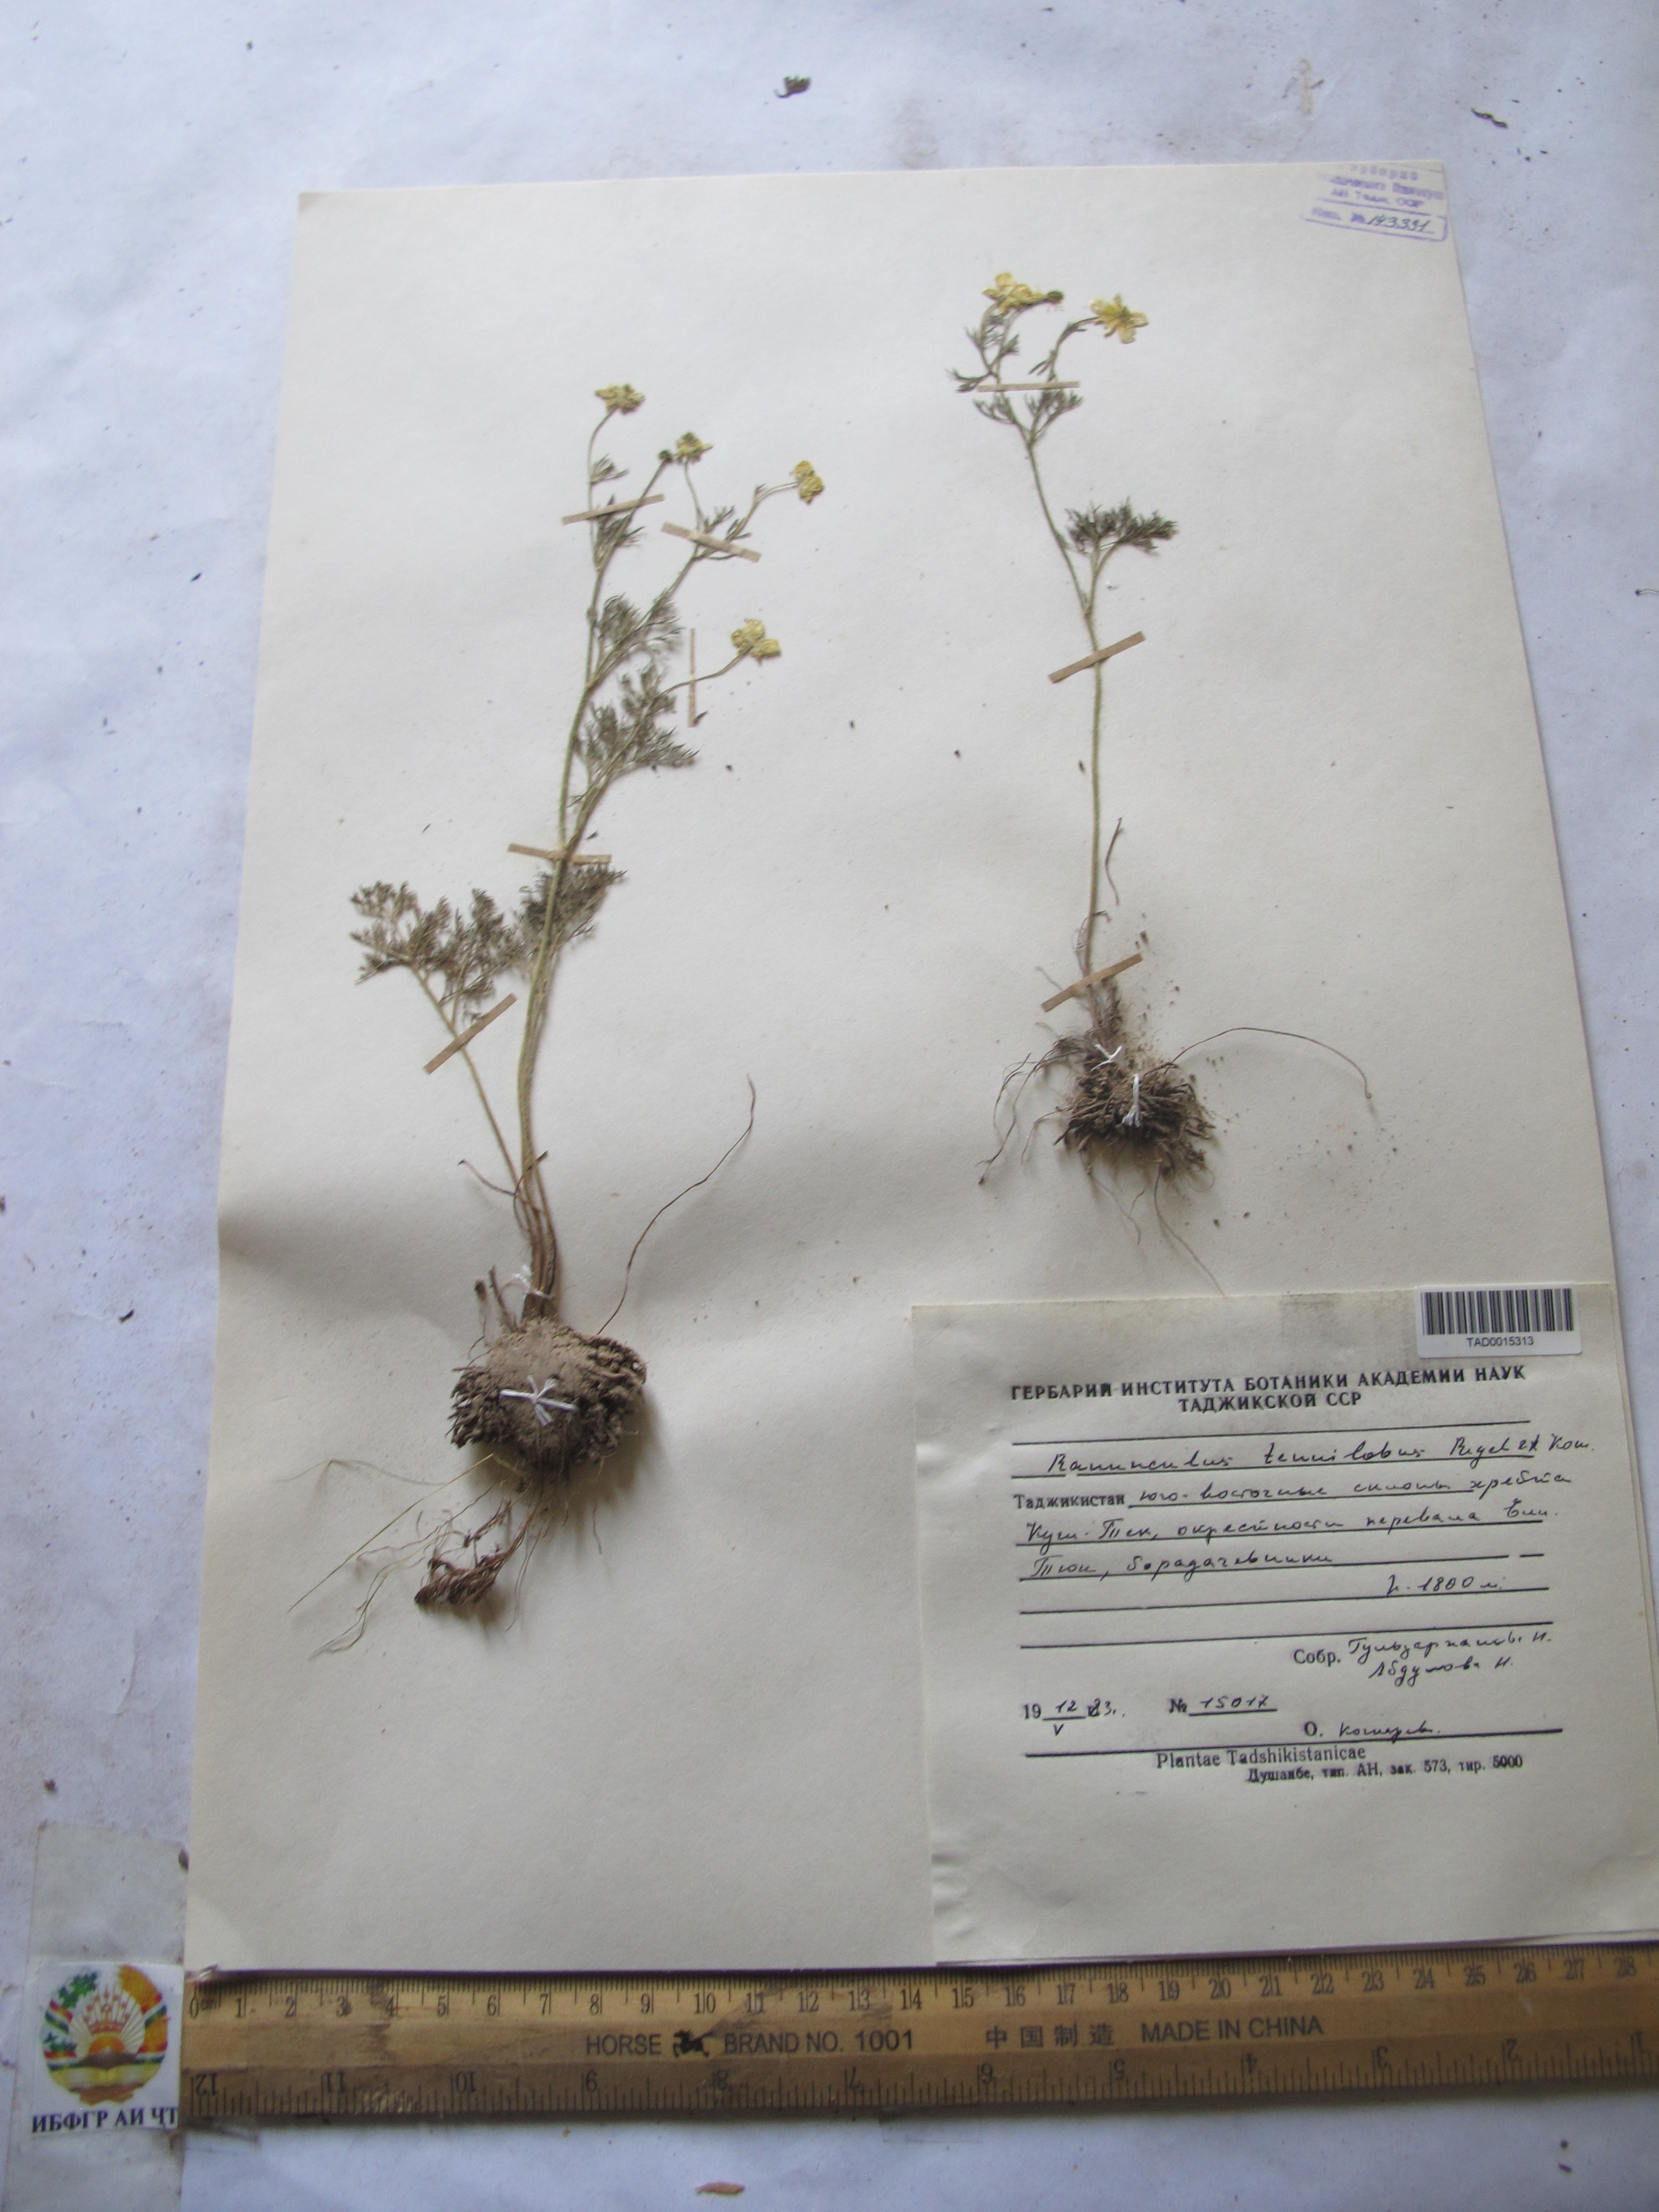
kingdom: Plantae
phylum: Tracheophyta
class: Magnoliopsida
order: Ranunculales
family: Ranunculaceae
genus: Ranunculus
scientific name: Ranunculus tenuilobus
